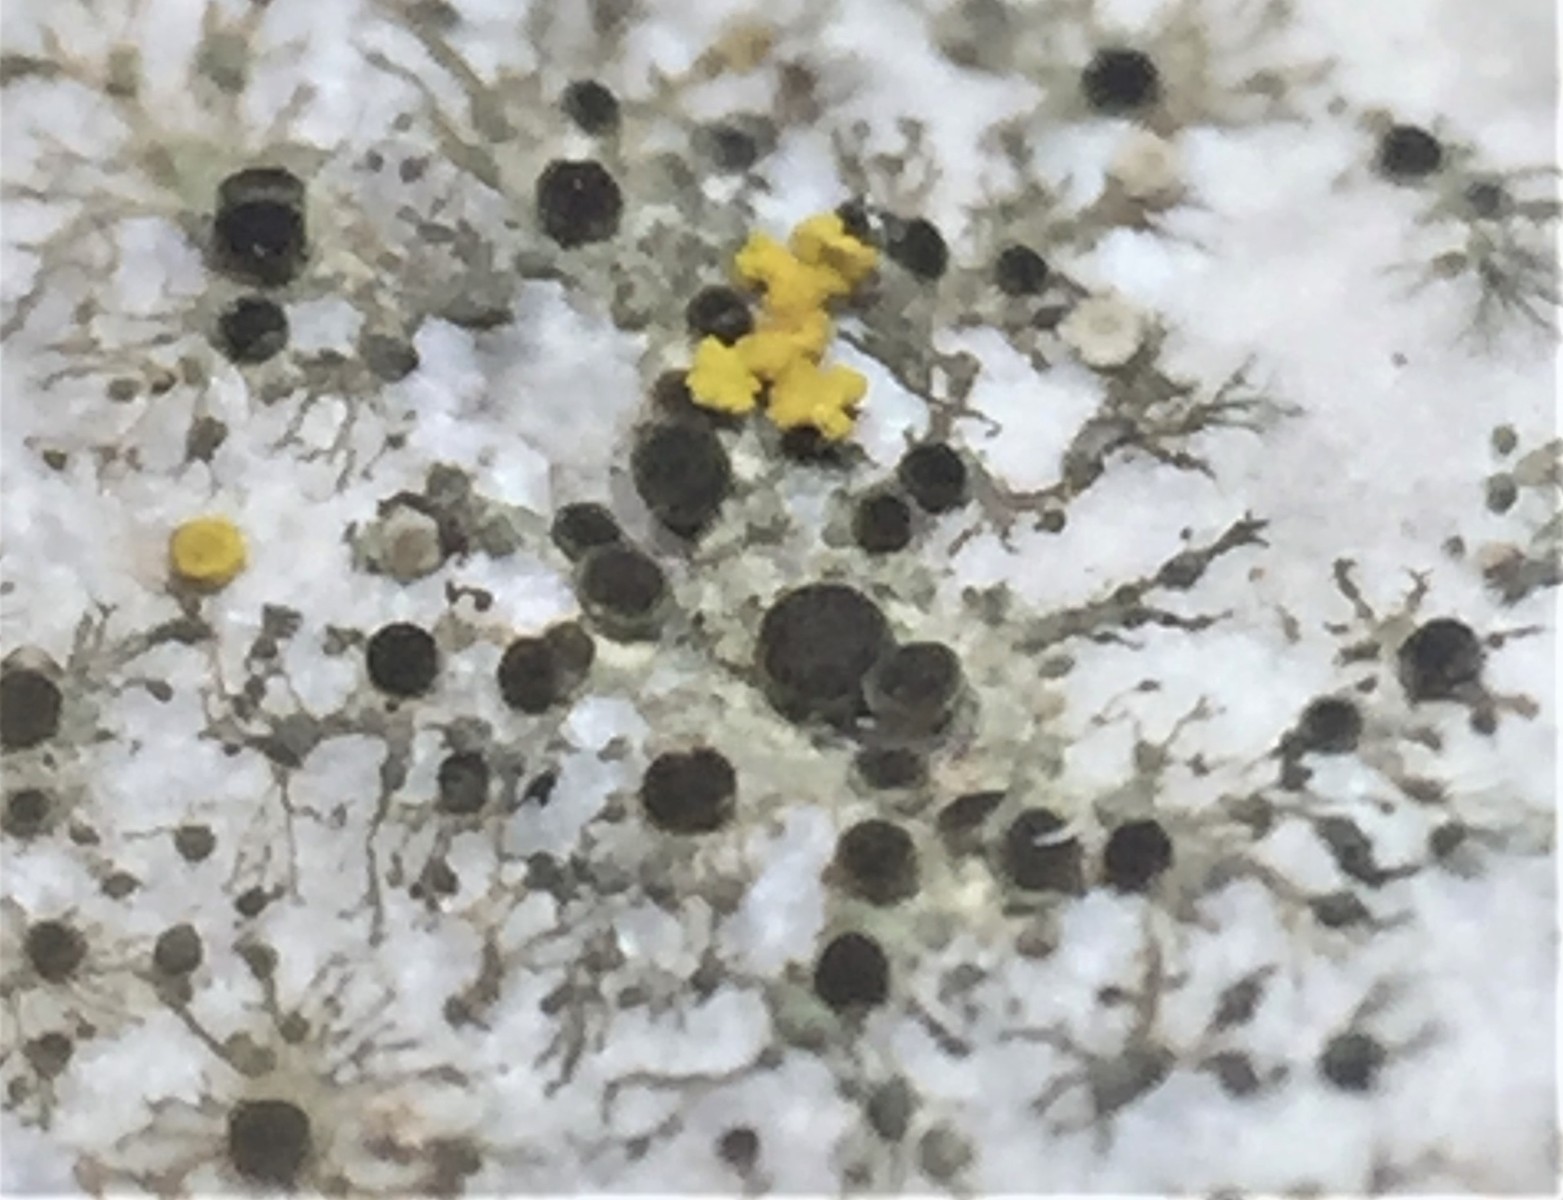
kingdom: Fungi
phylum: Ascomycota
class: Lecanoromycetes
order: Caliciales
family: Physciaceae
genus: Rinodina
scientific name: Rinodina oleae
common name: kyst-knaplav
